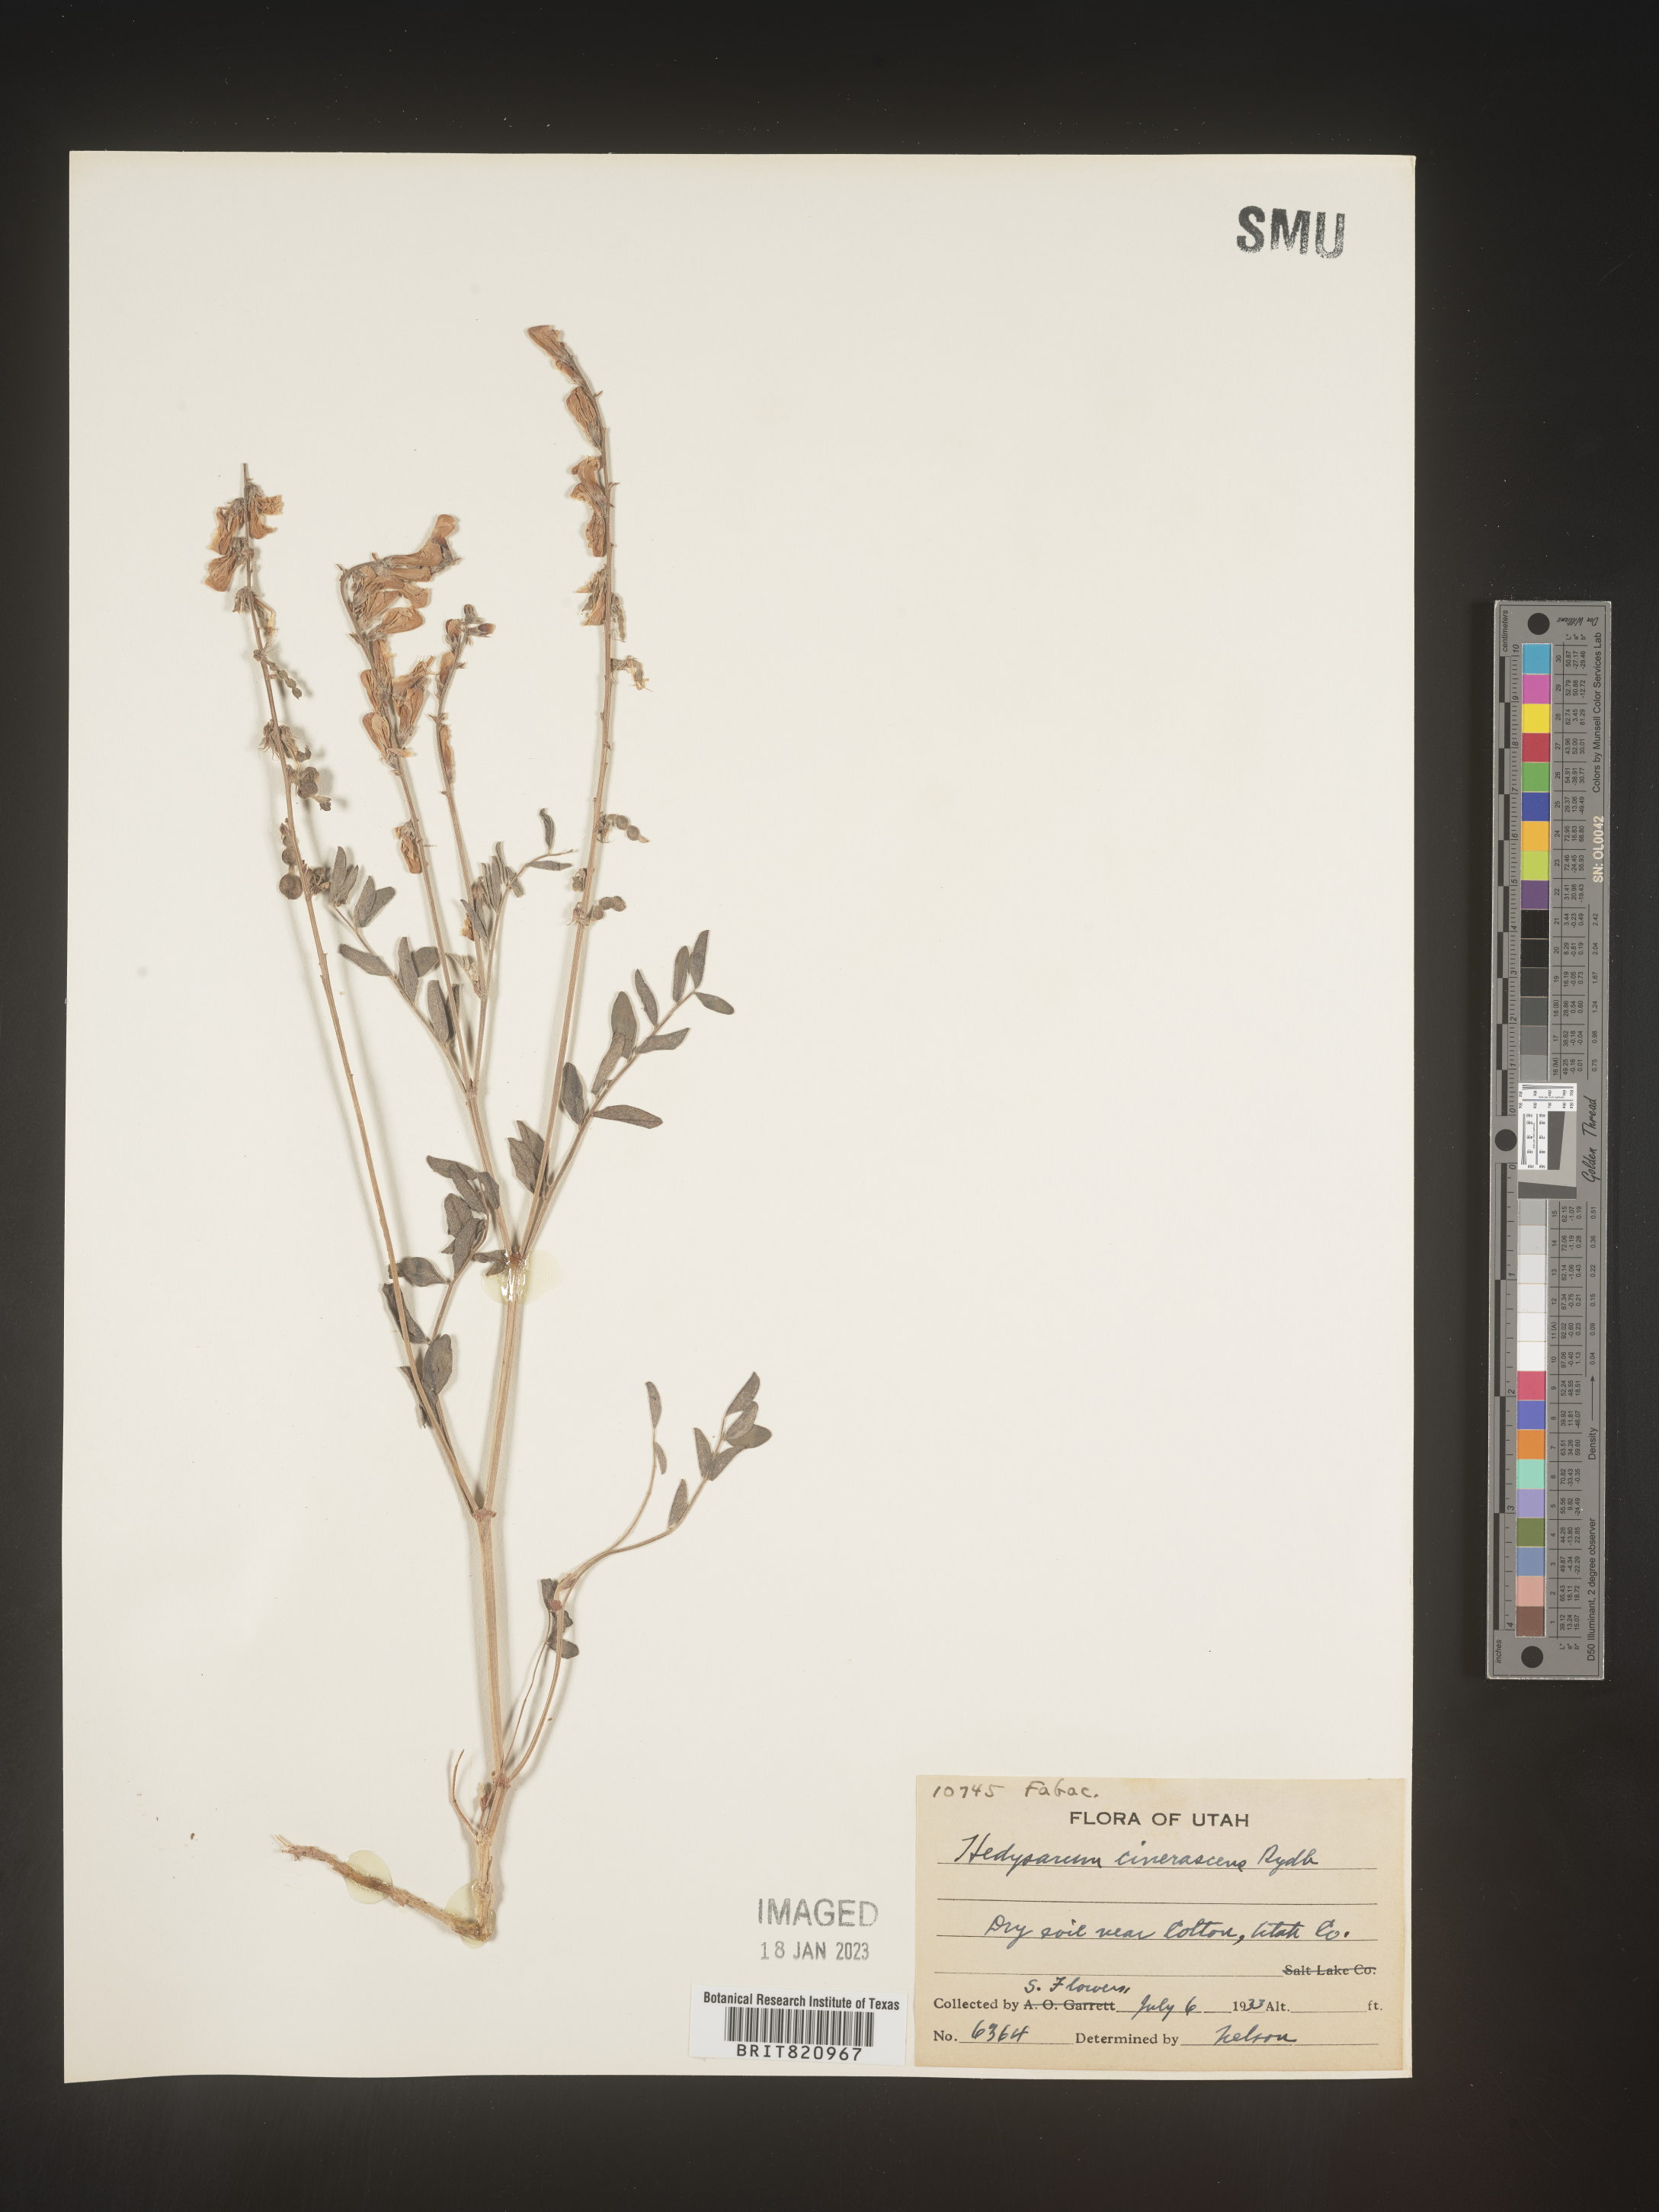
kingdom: Plantae
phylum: Tracheophyta
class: Magnoliopsida
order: Fabales
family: Fabaceae
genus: Hedysarum
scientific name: Hedysarum boreale
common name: Northern sweet-vetch
